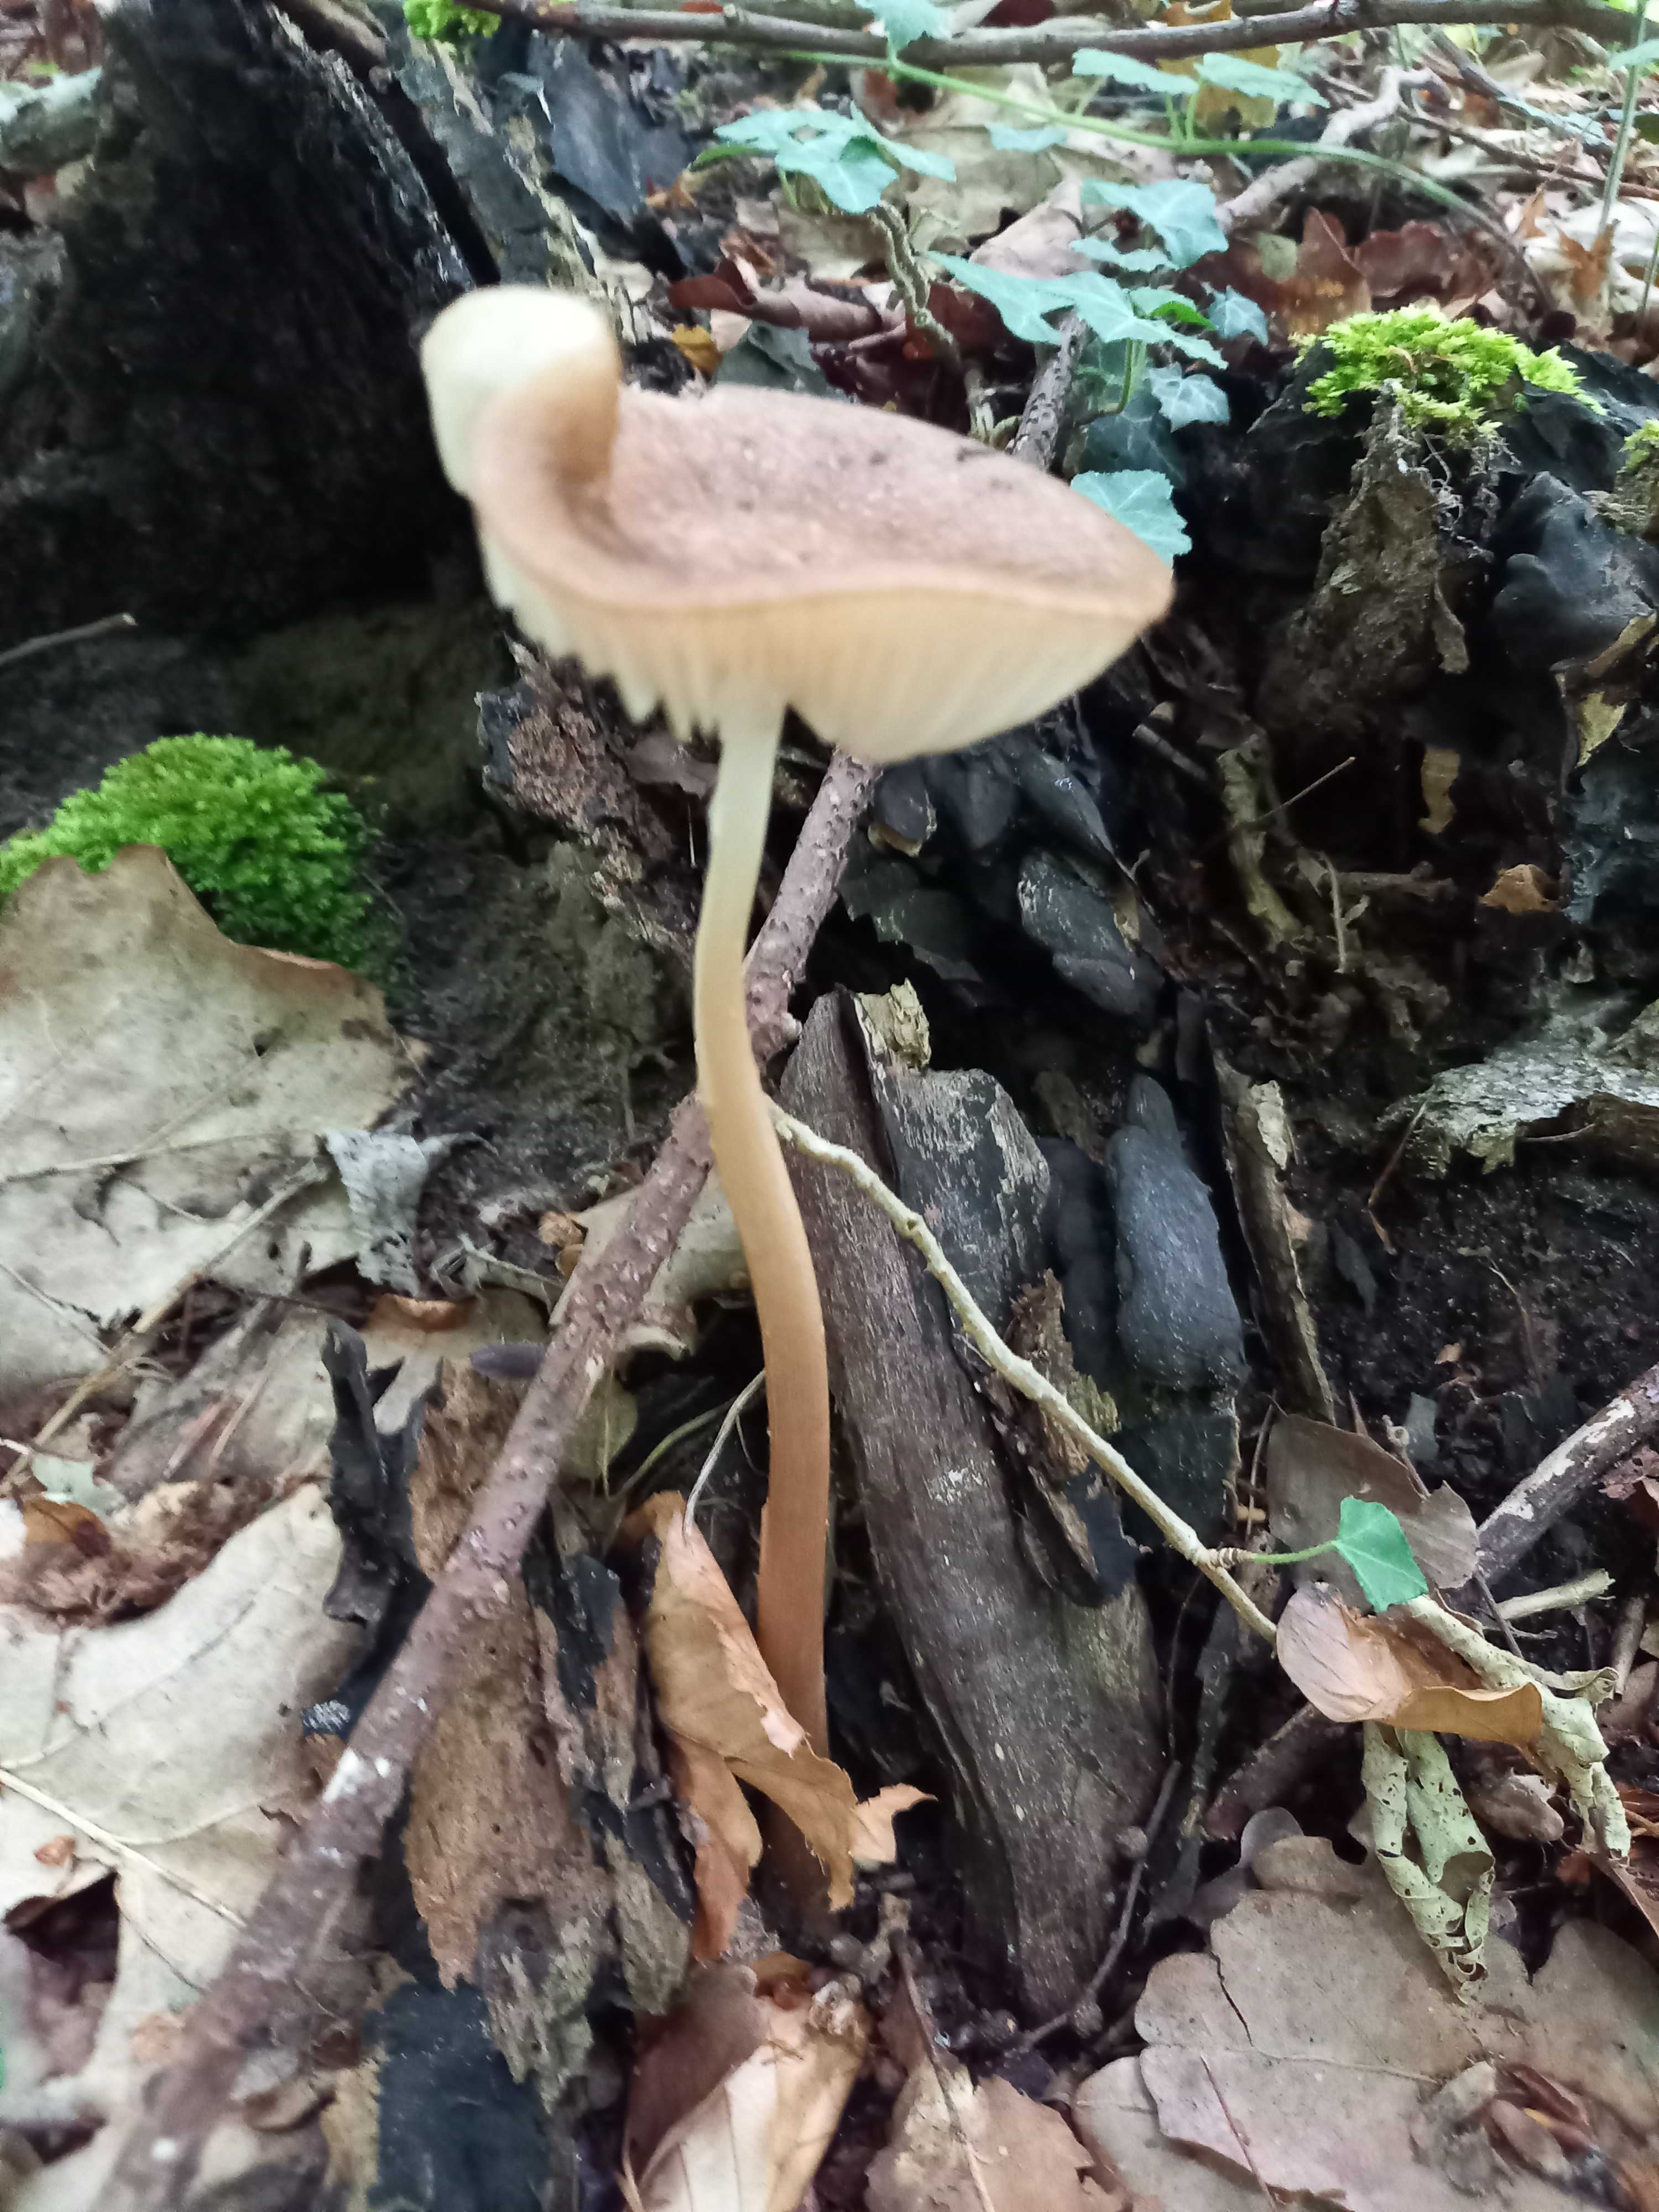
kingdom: Fungi
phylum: Basidiomycota
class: Agaricomycetes
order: Agaricales
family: Physalacriaceae
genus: Hymenopellis
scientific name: Hymenopellis radicata
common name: almindelig pælerodshat
